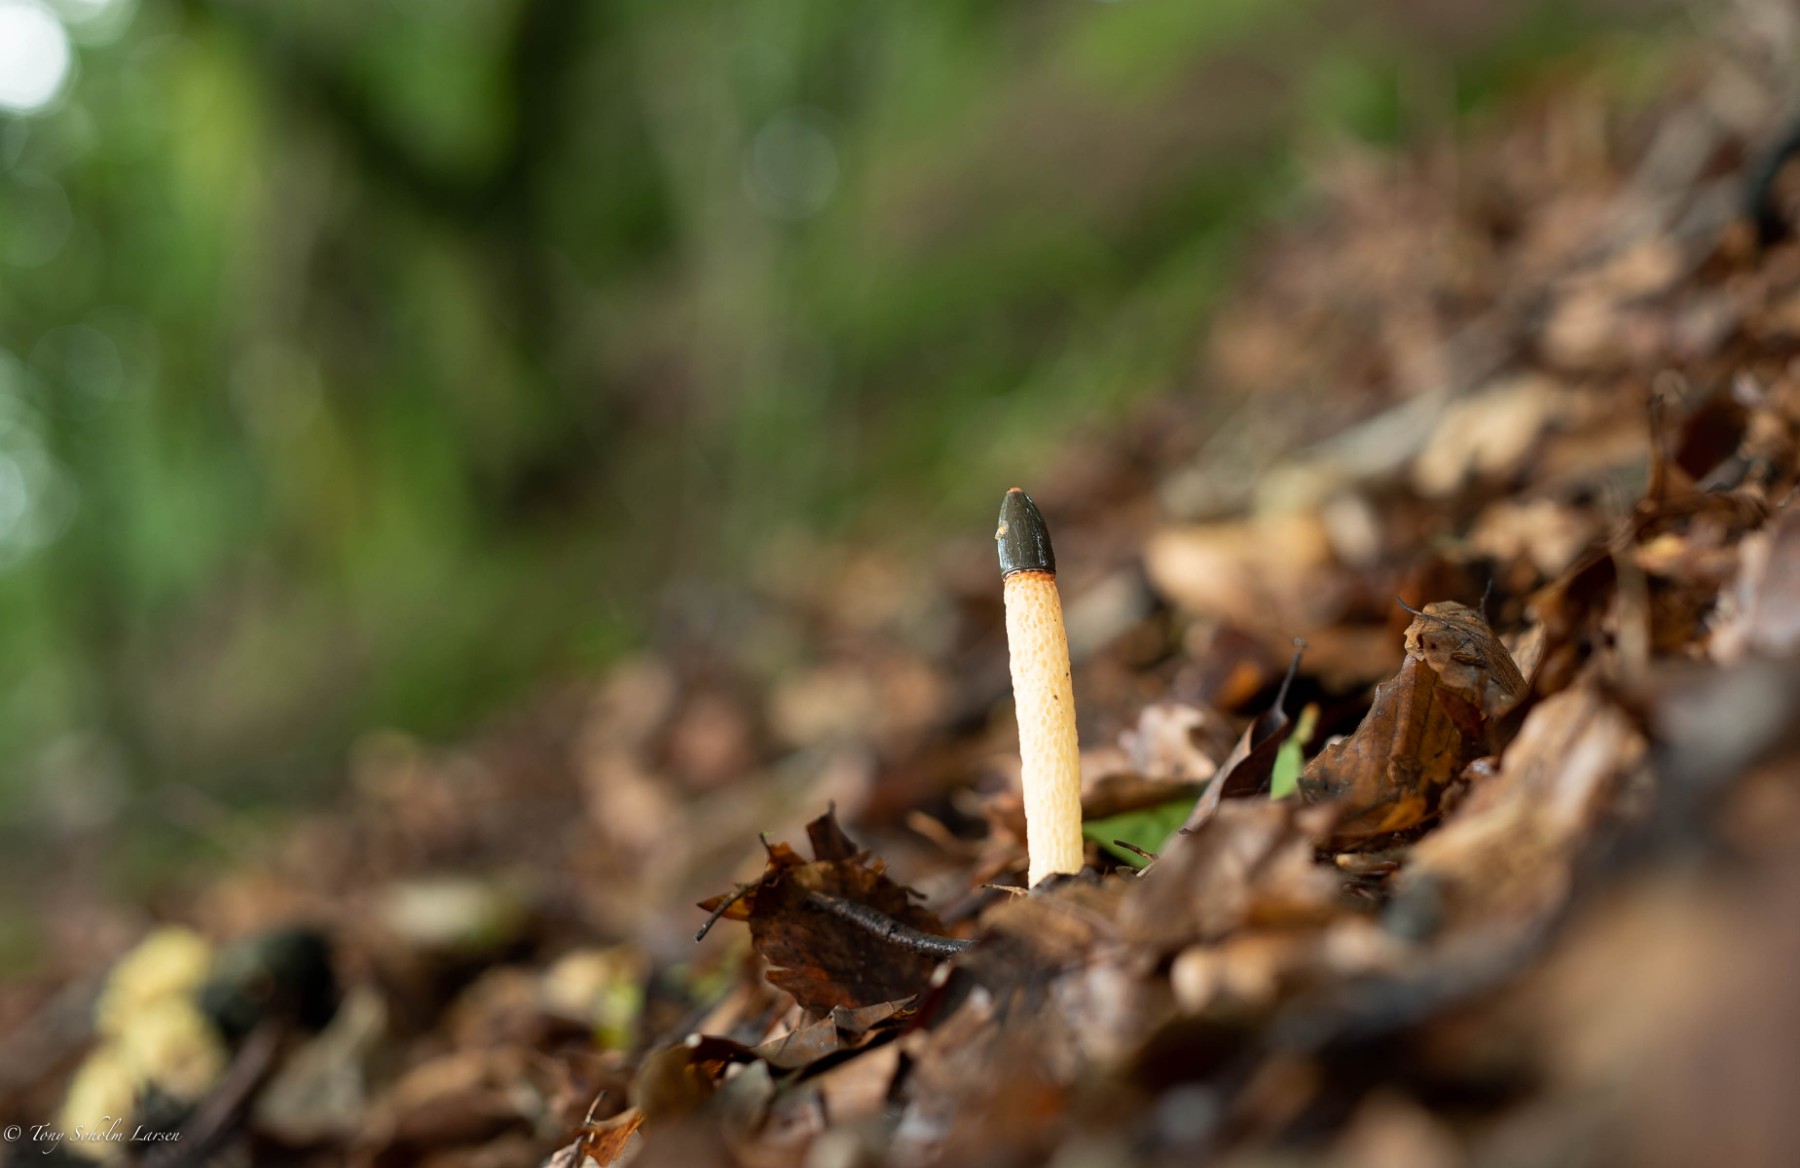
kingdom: Fungi
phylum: Basidiomycota
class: Agaricomycetes
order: Phallales
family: Phallaceae
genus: Mutinus
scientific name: Mutinus caninus
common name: hunde-stinksvamp
